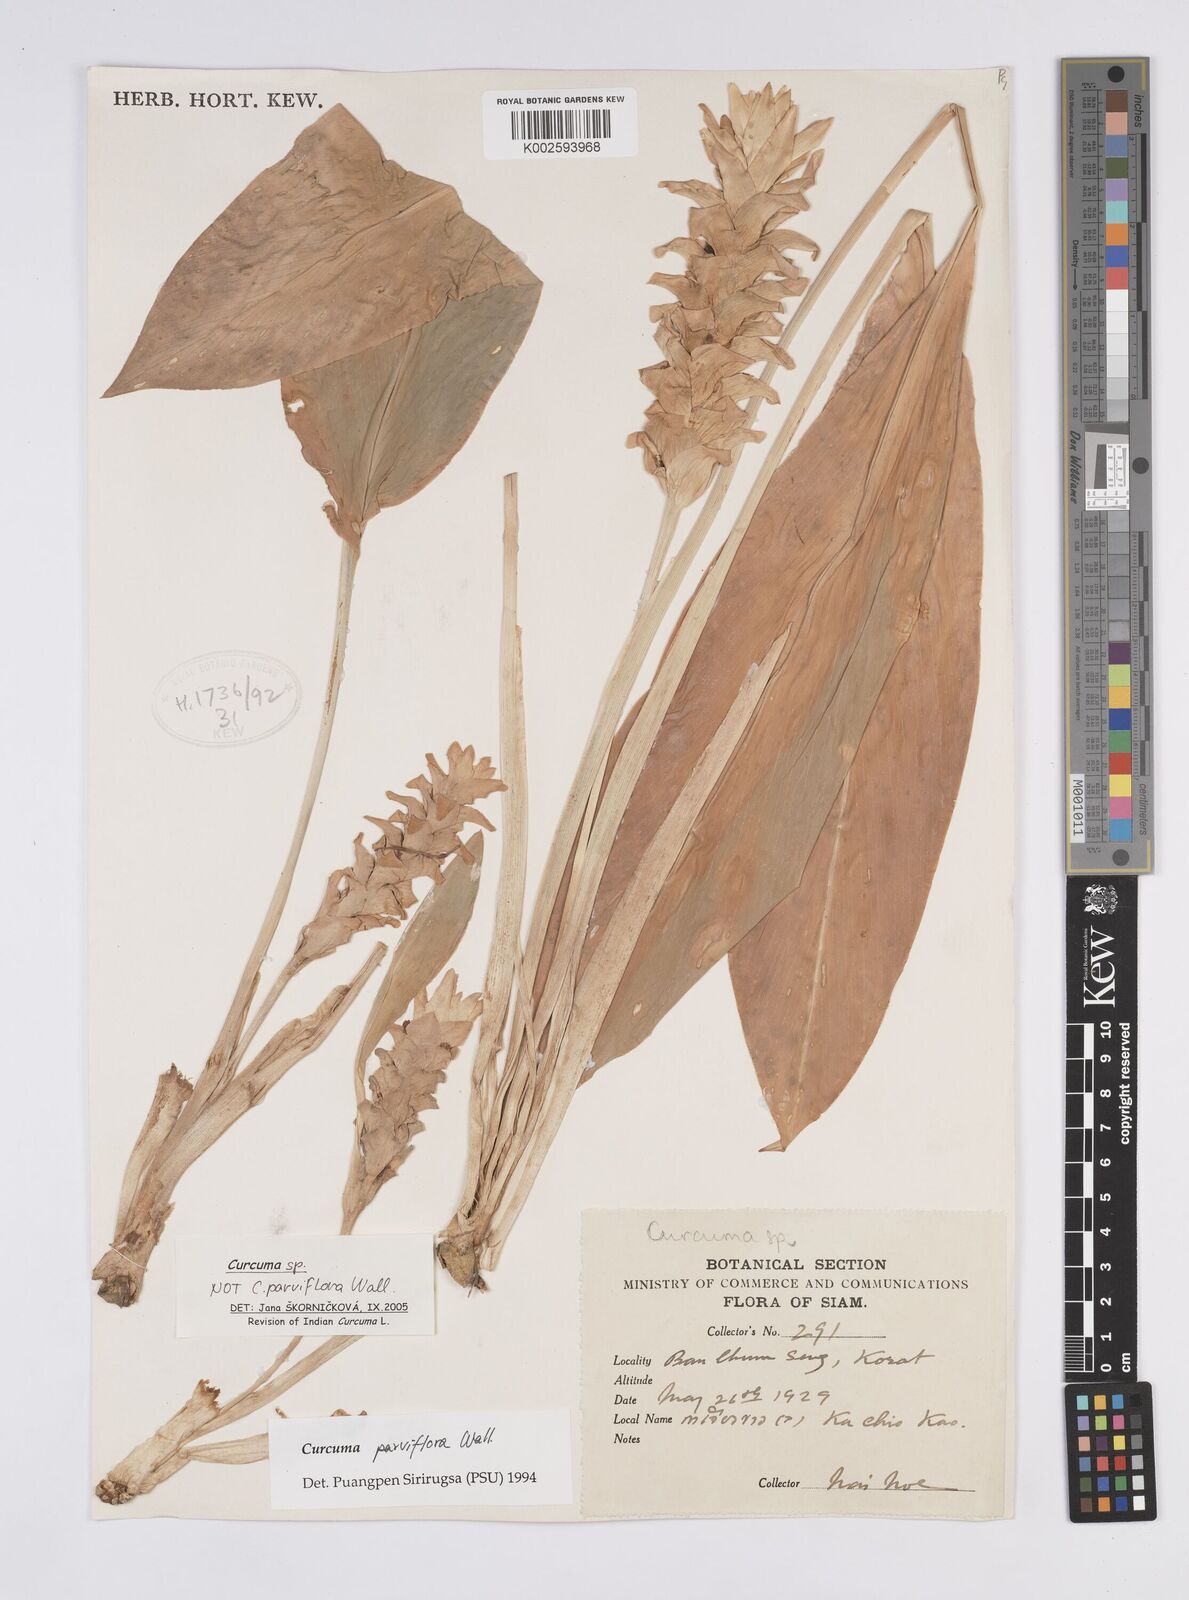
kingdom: Plantae
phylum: Tracheophyta
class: Liliopsida
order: Zingiberales
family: Zingiberaceae
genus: Curcuma
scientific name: Curcuma
